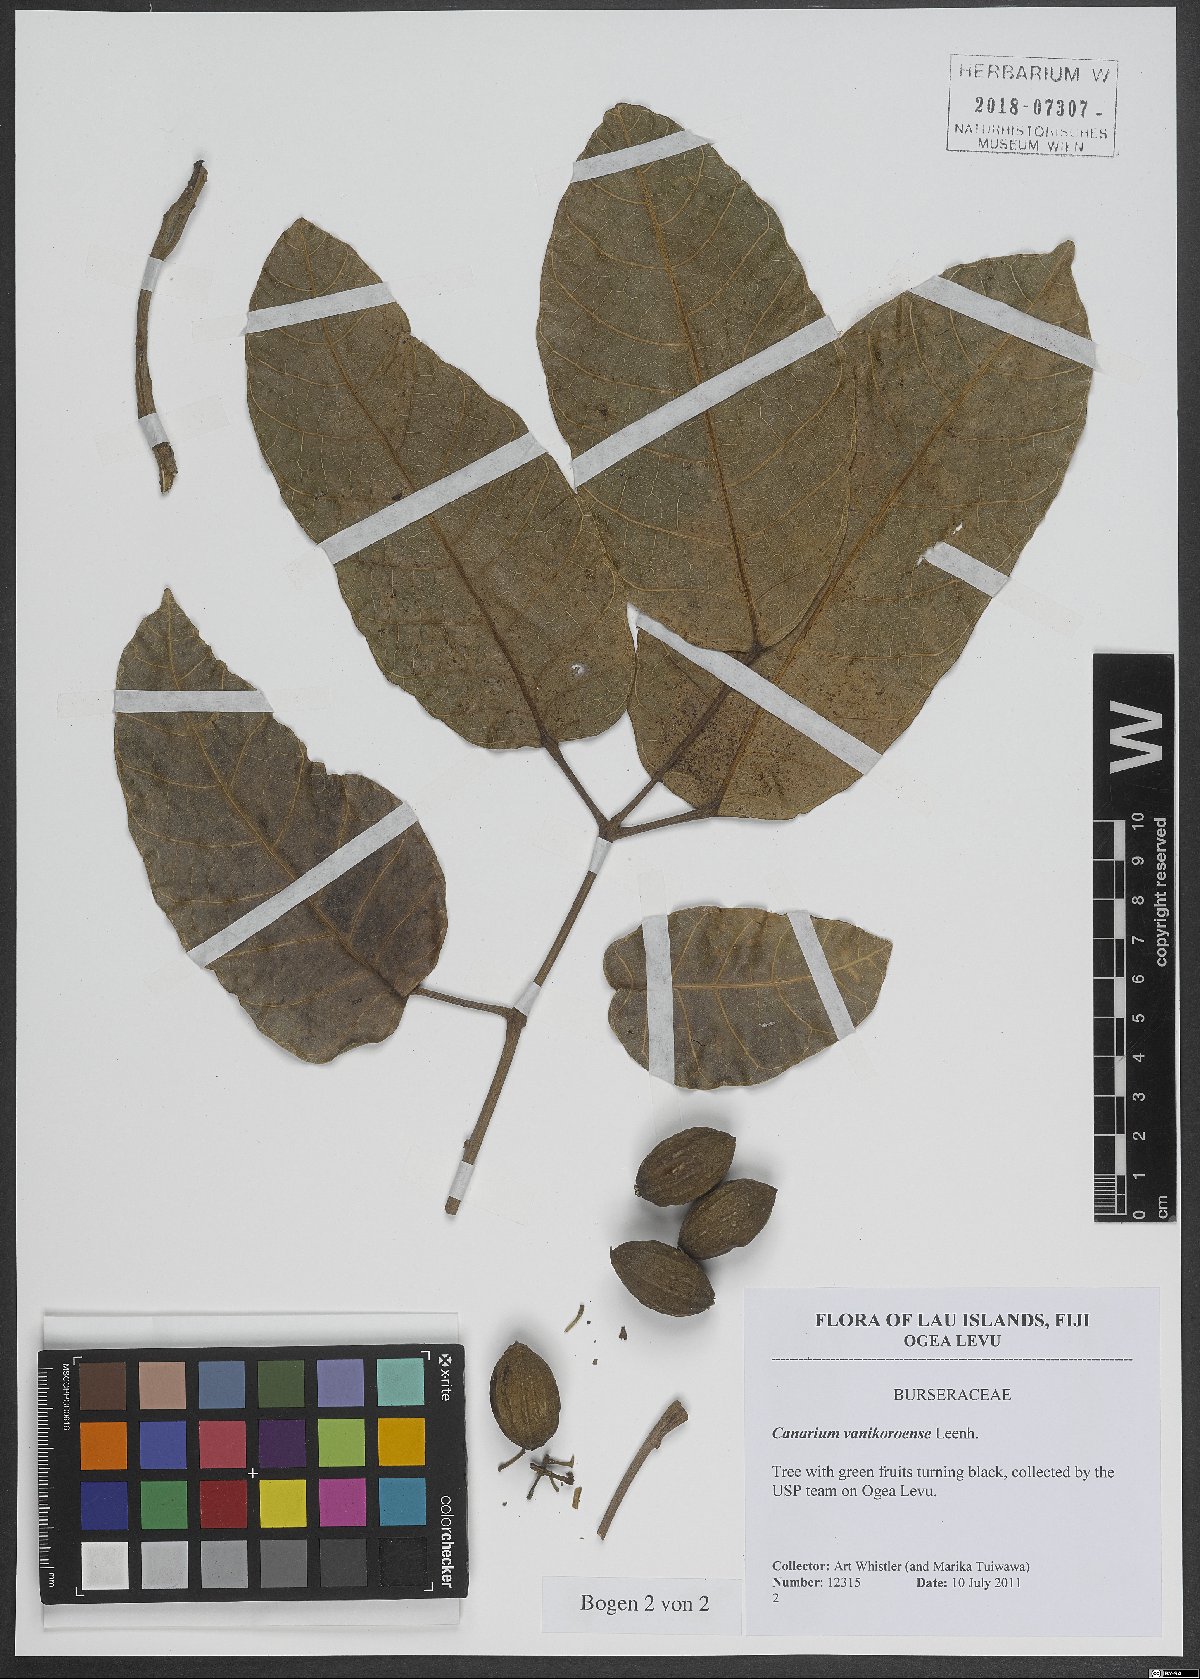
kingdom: Plantae
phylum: Tracheophyta
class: Magnoliopsida
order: Sapindales
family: Burseraceae
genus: Canarium
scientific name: Canarium vanikoroense
